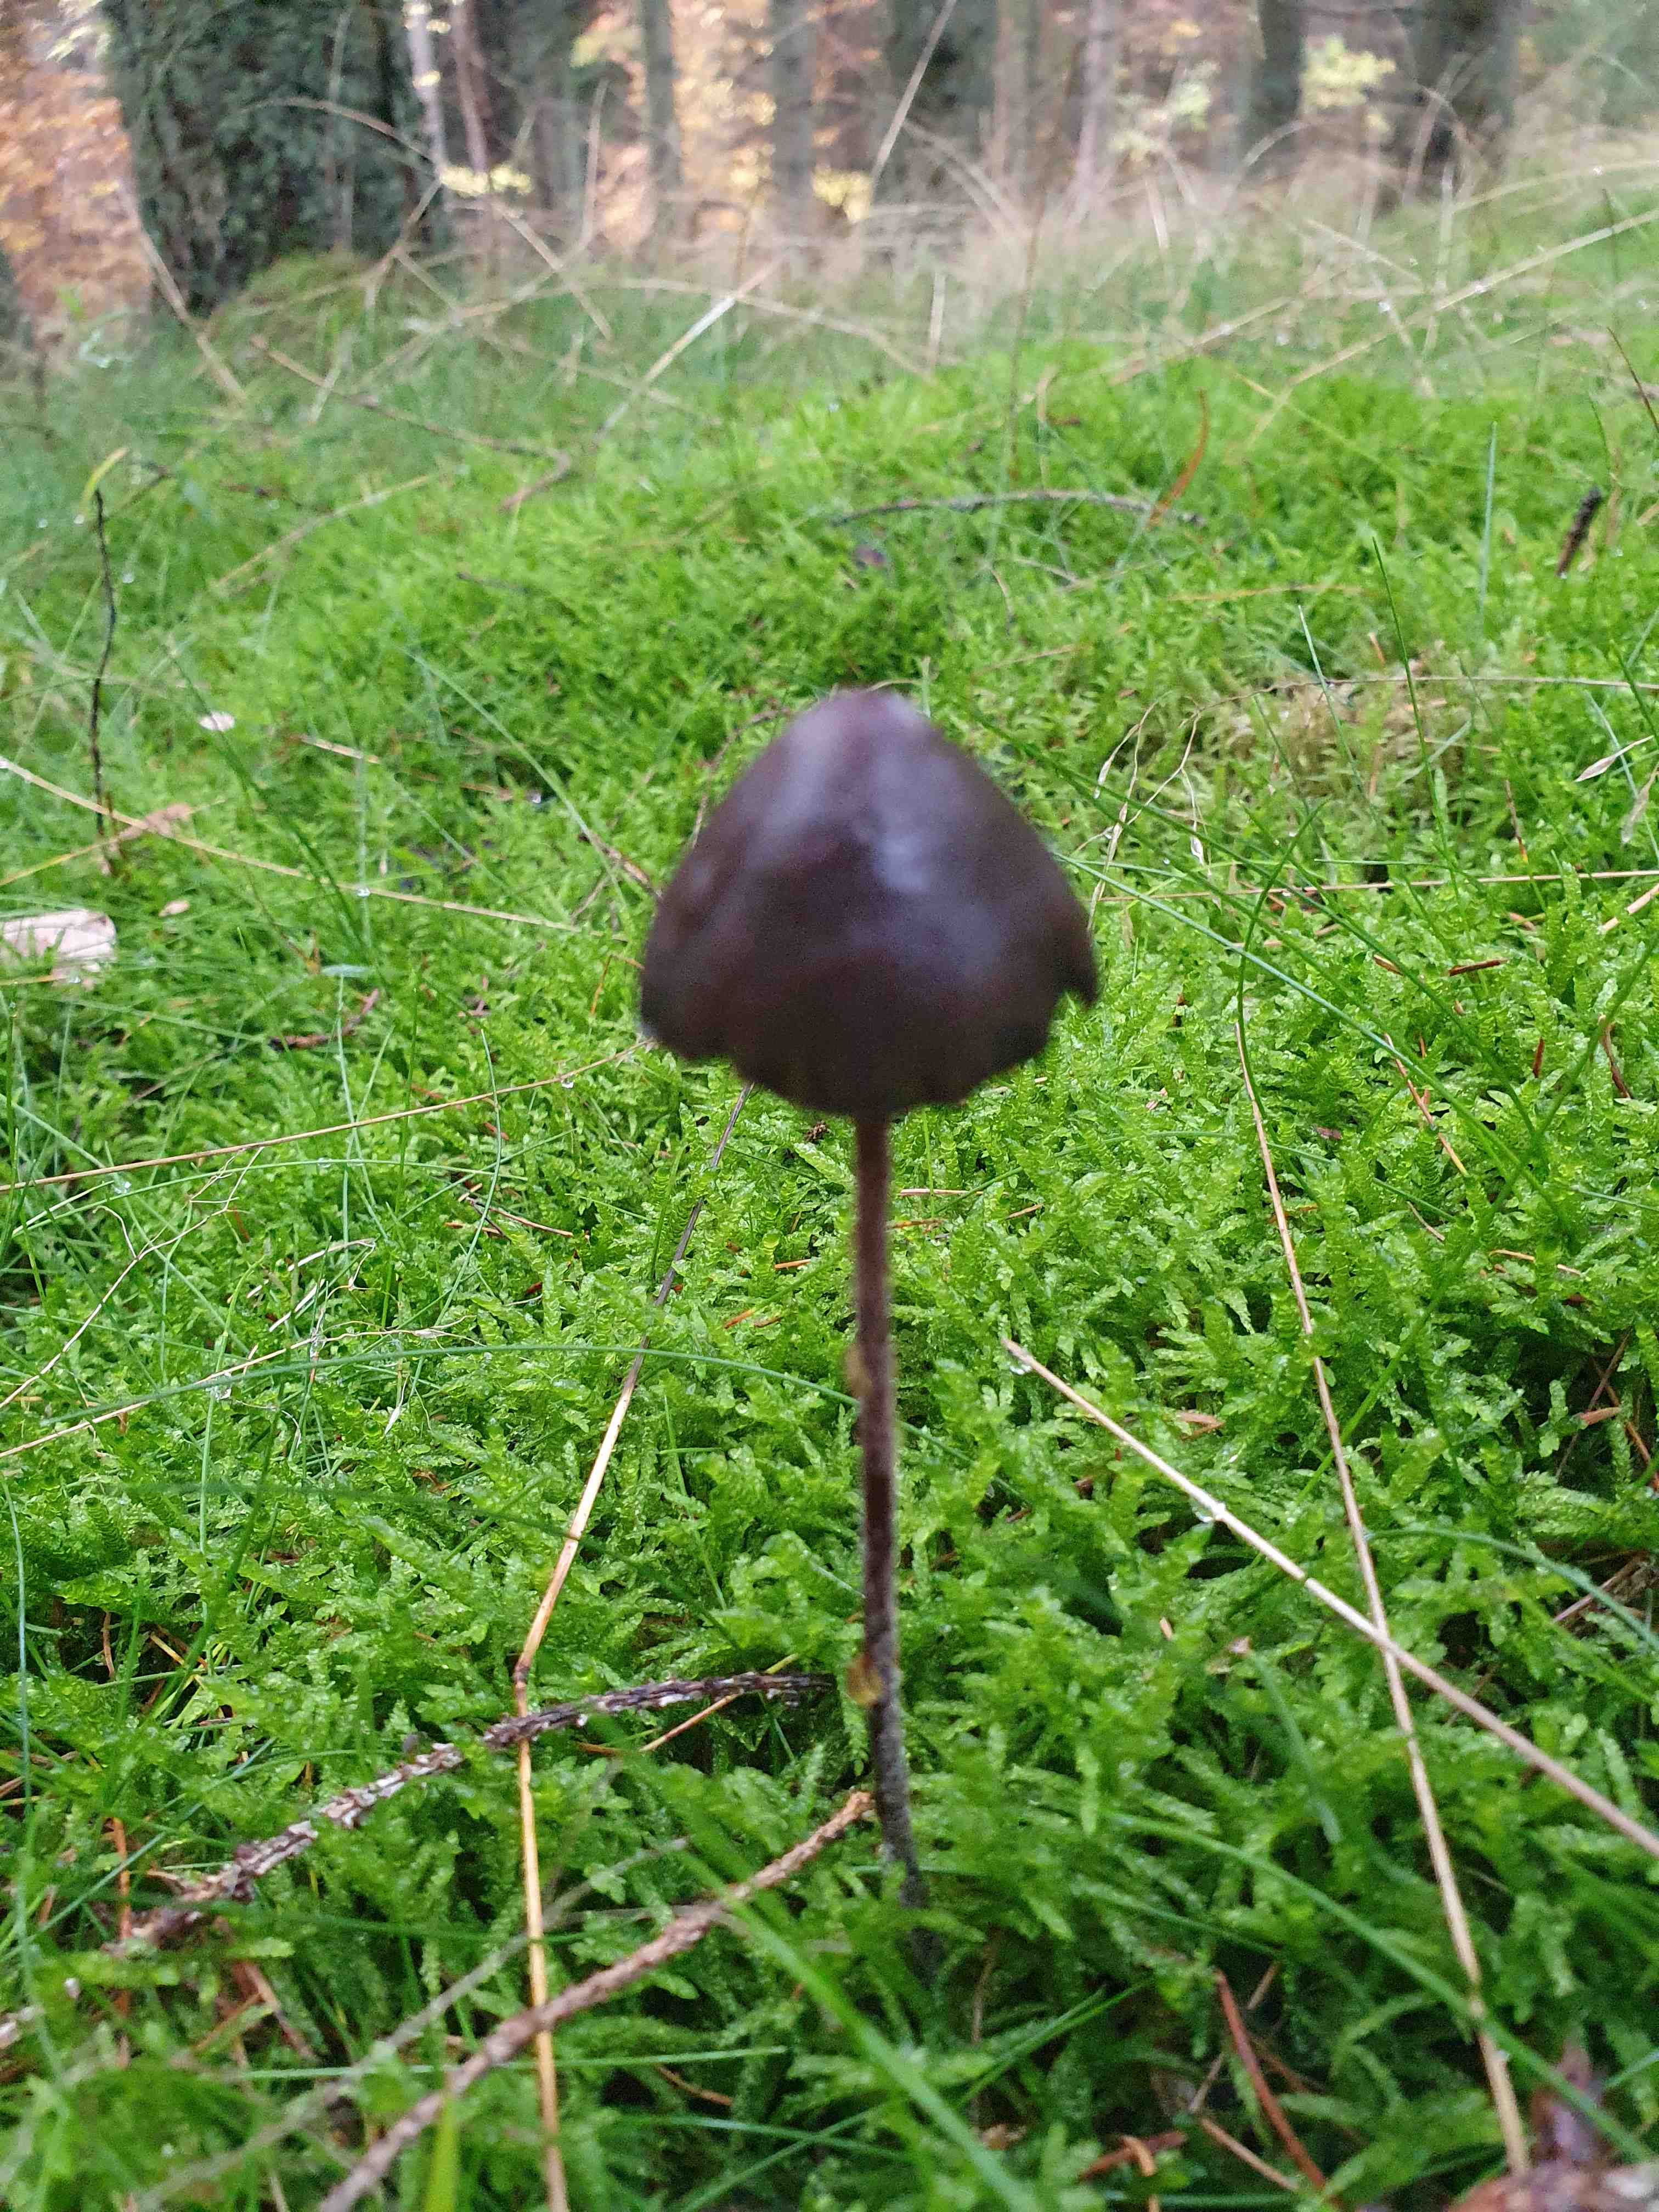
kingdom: Fungi
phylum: Basidiomycota
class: Agaricomycetes
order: Agaricales
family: Bolbitiaceae
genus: Panaeolus
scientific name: Panaeolus
